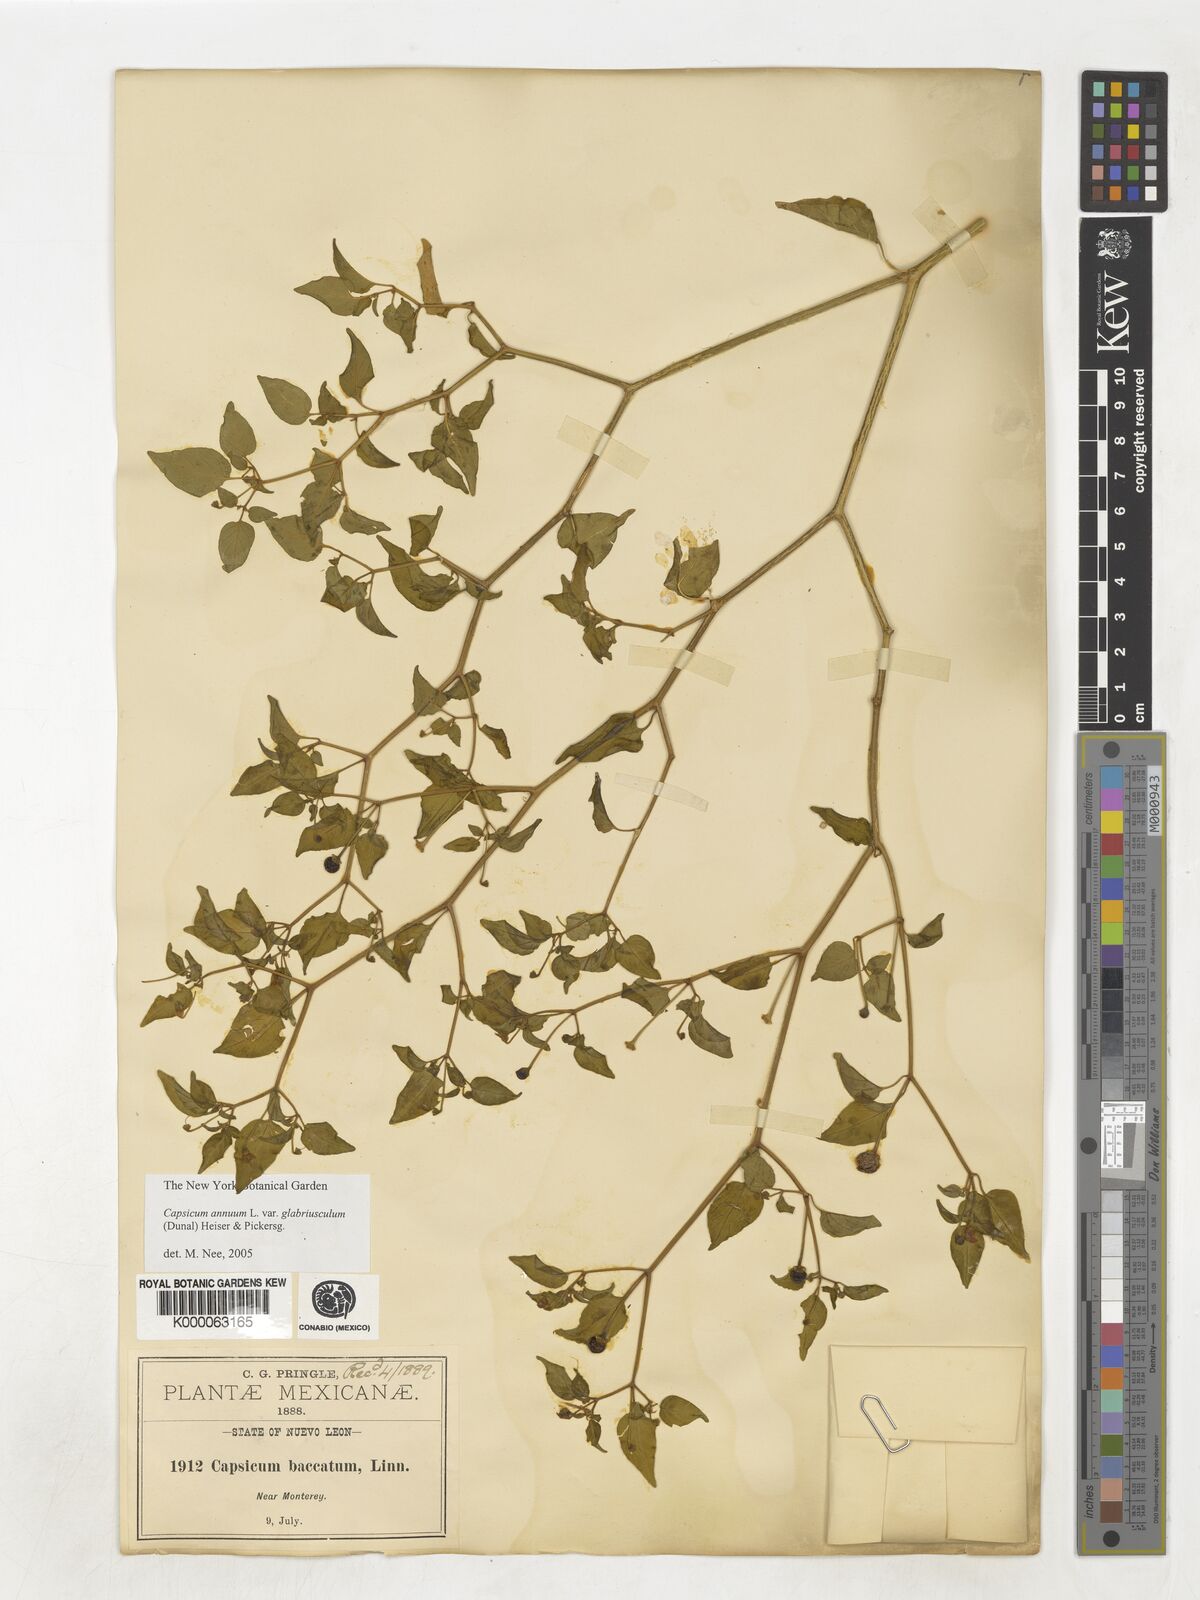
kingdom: Plantae
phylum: Tracheophyta
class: Magnoliopsida
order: Solanales
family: Solanaceae
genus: Capsicum
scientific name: Capsicum baccatum
